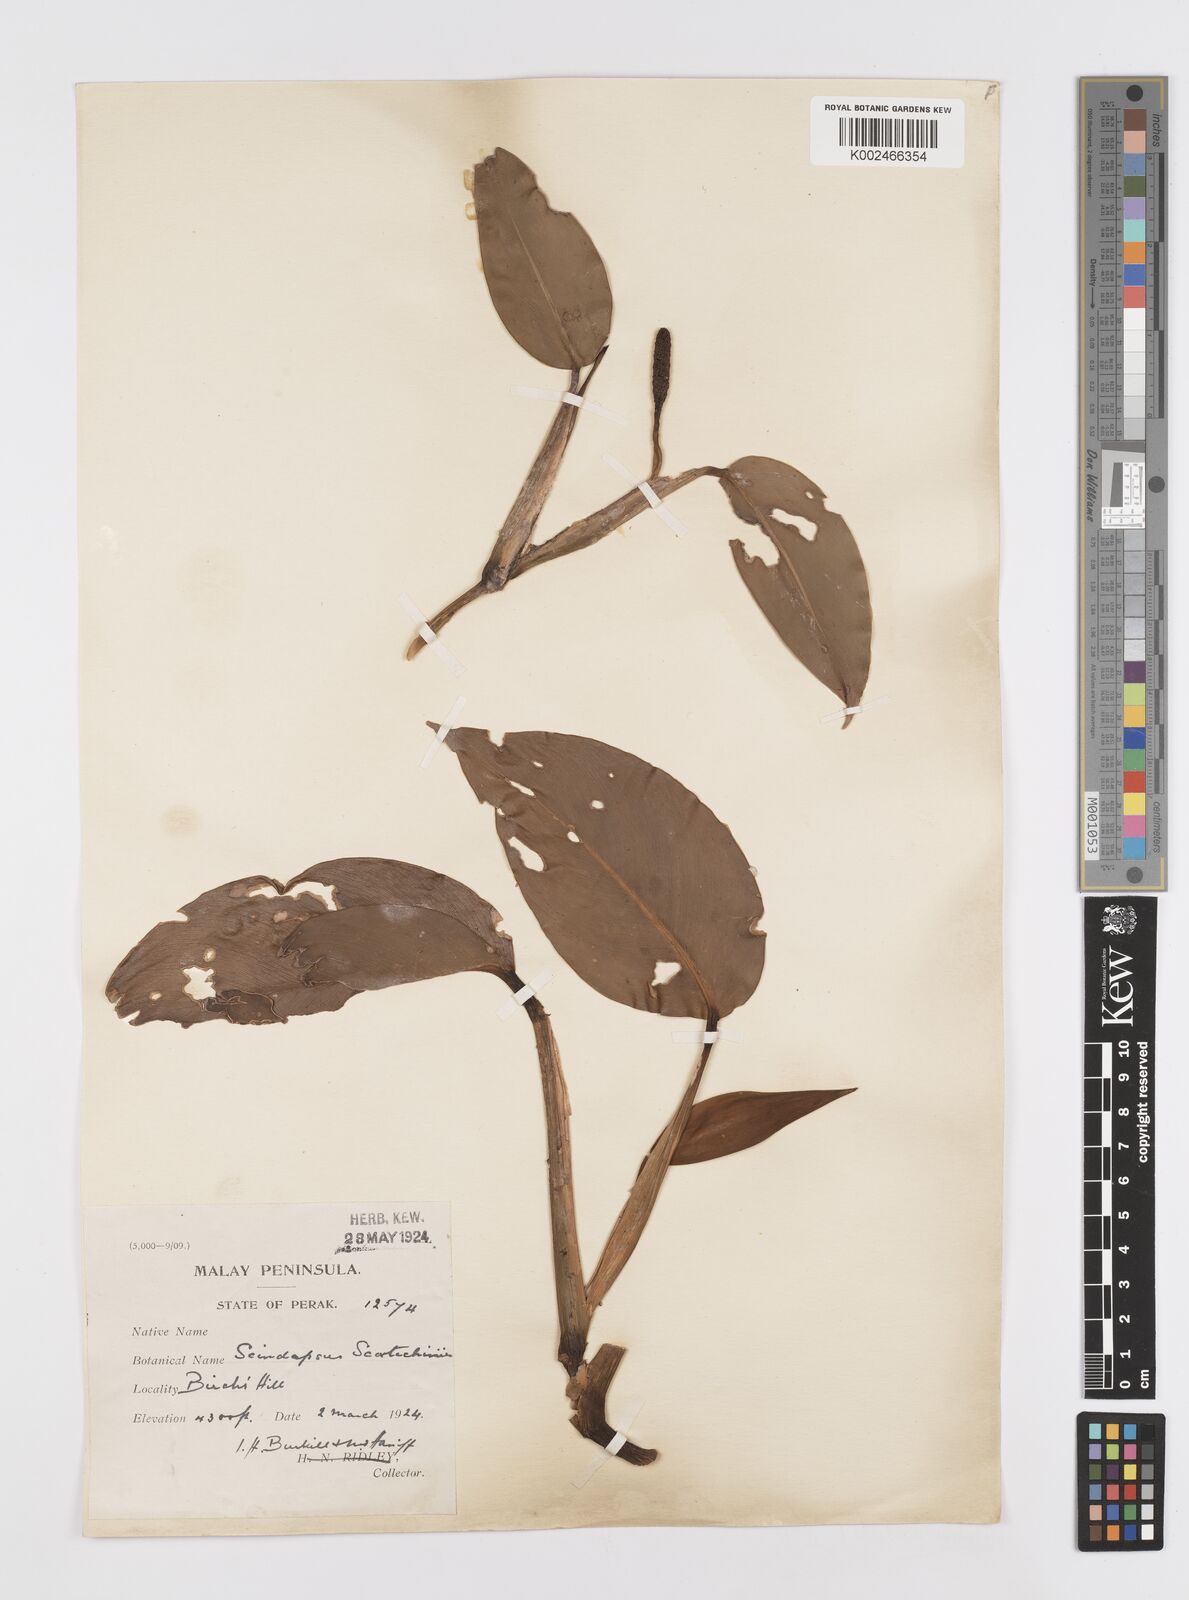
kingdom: Plantae
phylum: Tracheophyta
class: Liliopsida
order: Alismatales
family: Araceae
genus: Scindapsus
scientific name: Scindapsus scortechinii
